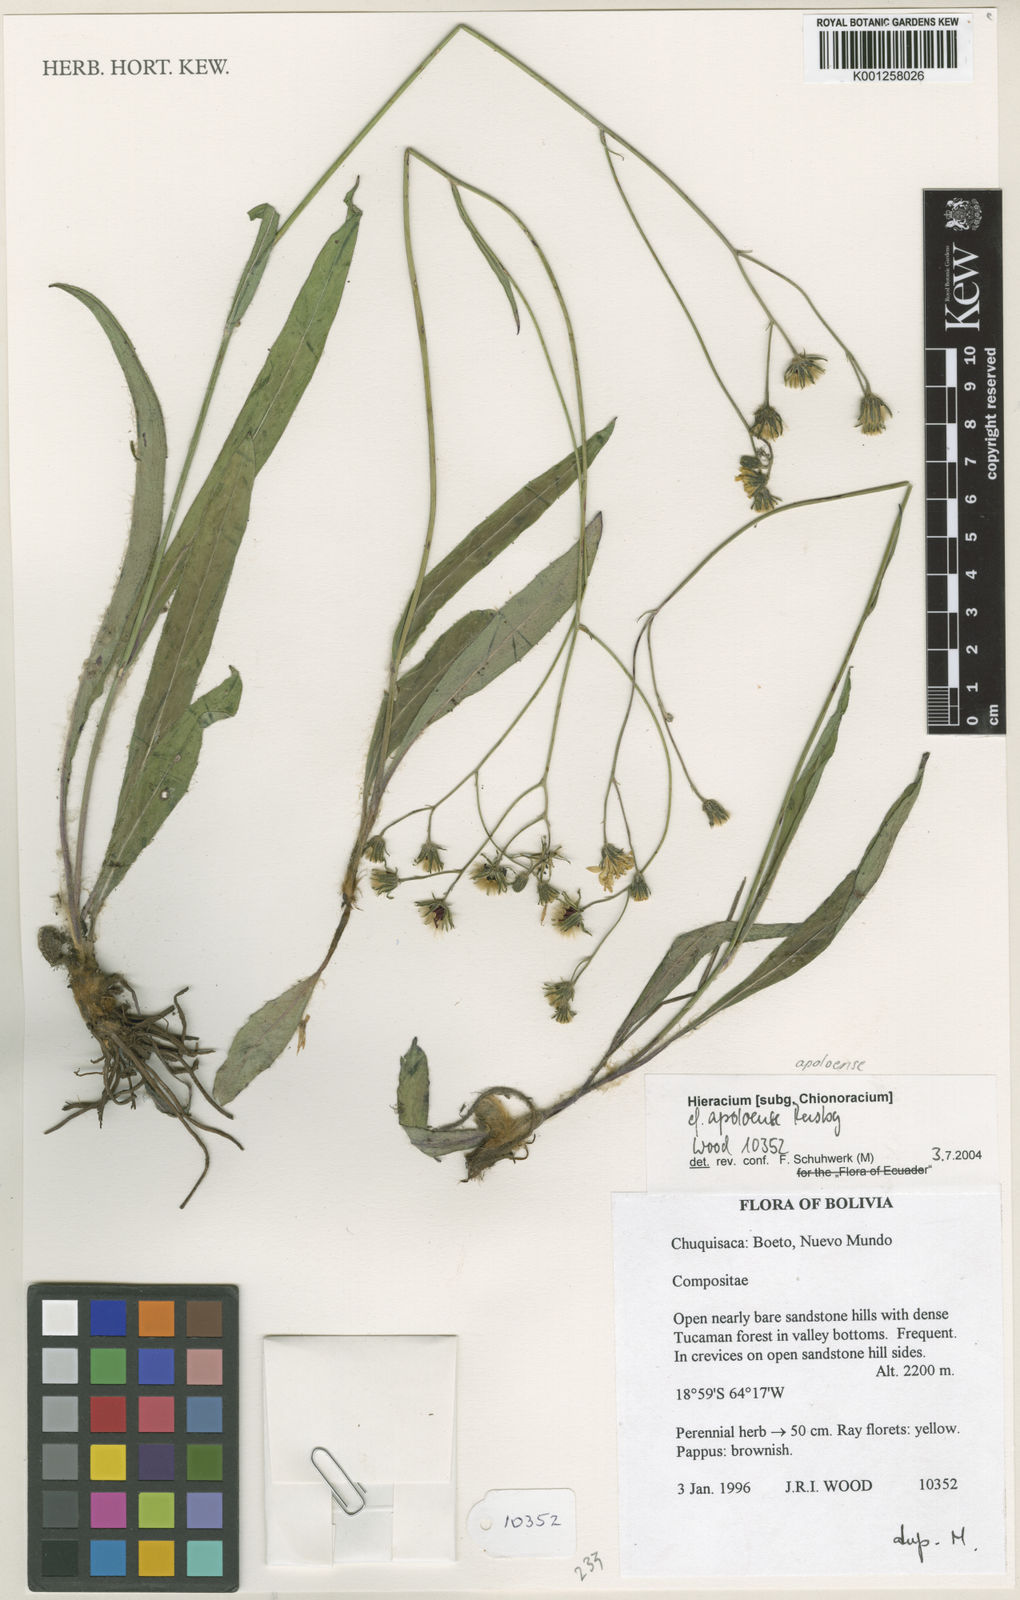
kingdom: Plantae
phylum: Tracheophyta
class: Magnoliopsida
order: Asterales
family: Asteraceae
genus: Hieracium
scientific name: Hieracium apoloense
